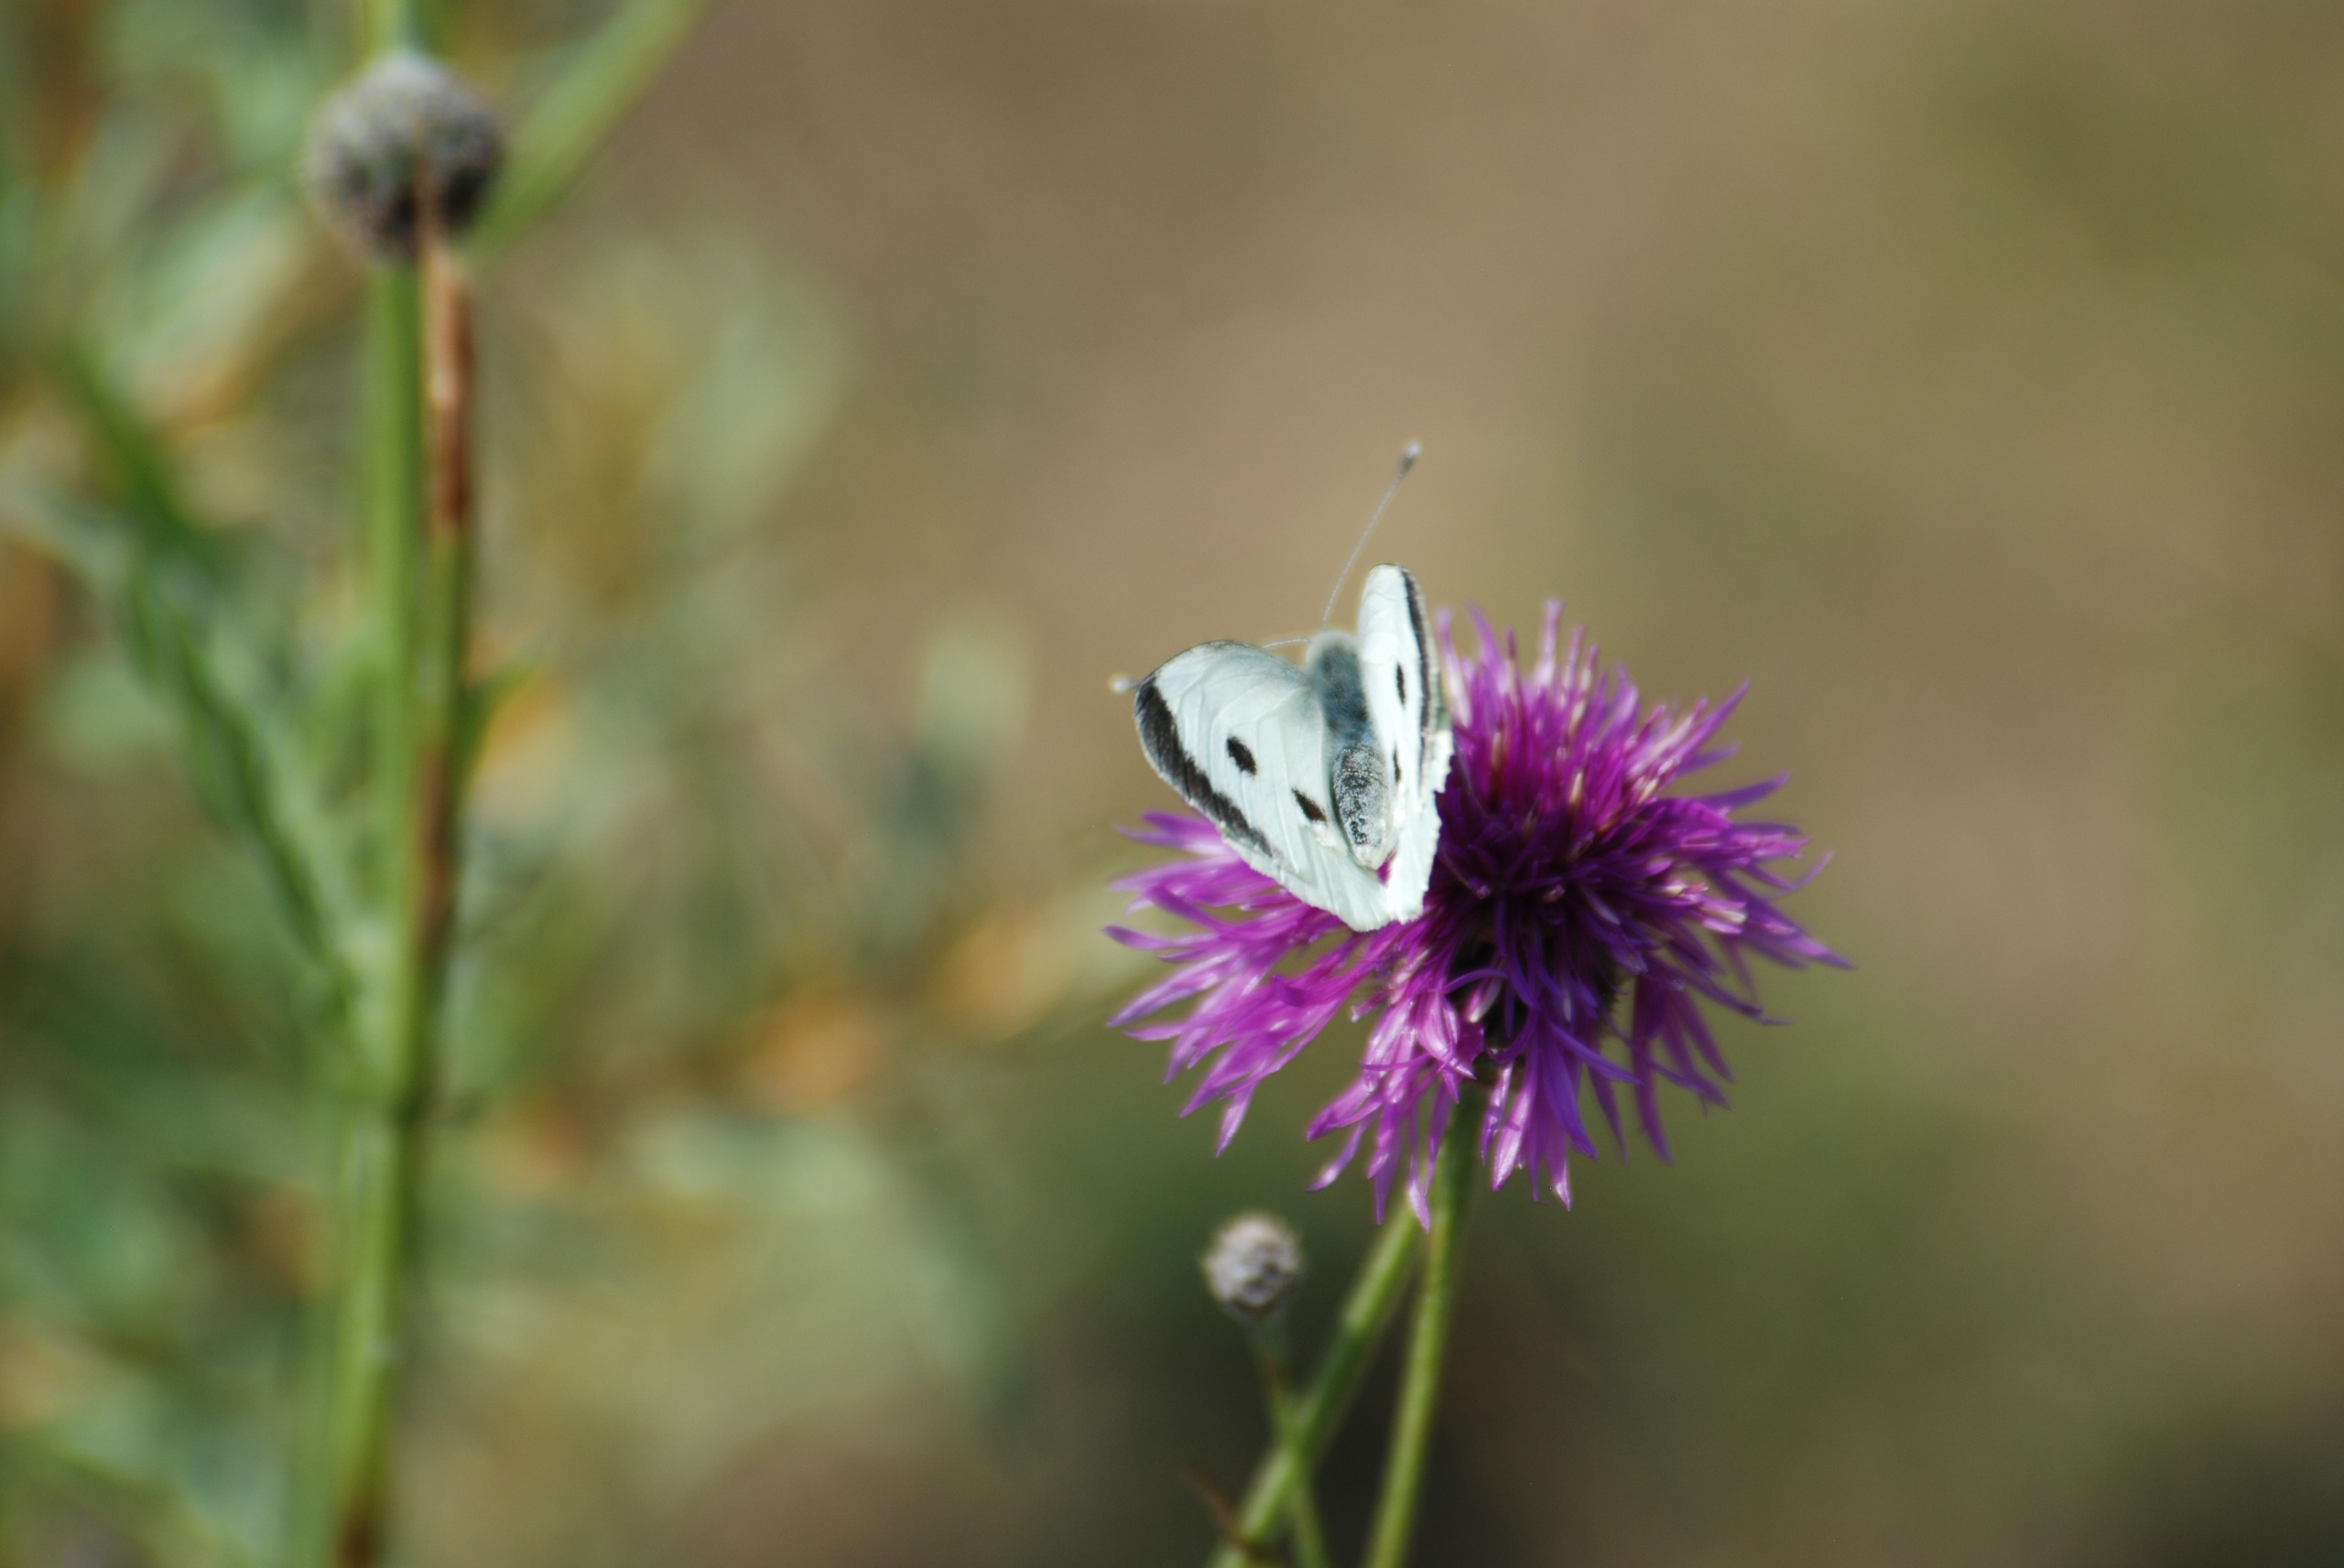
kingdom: Animalia
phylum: Arthropoda
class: Insecta
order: Lepidoptera
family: Pieridae
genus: Pieris
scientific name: Pieris brassicae
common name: Stor kålsommerfugl
